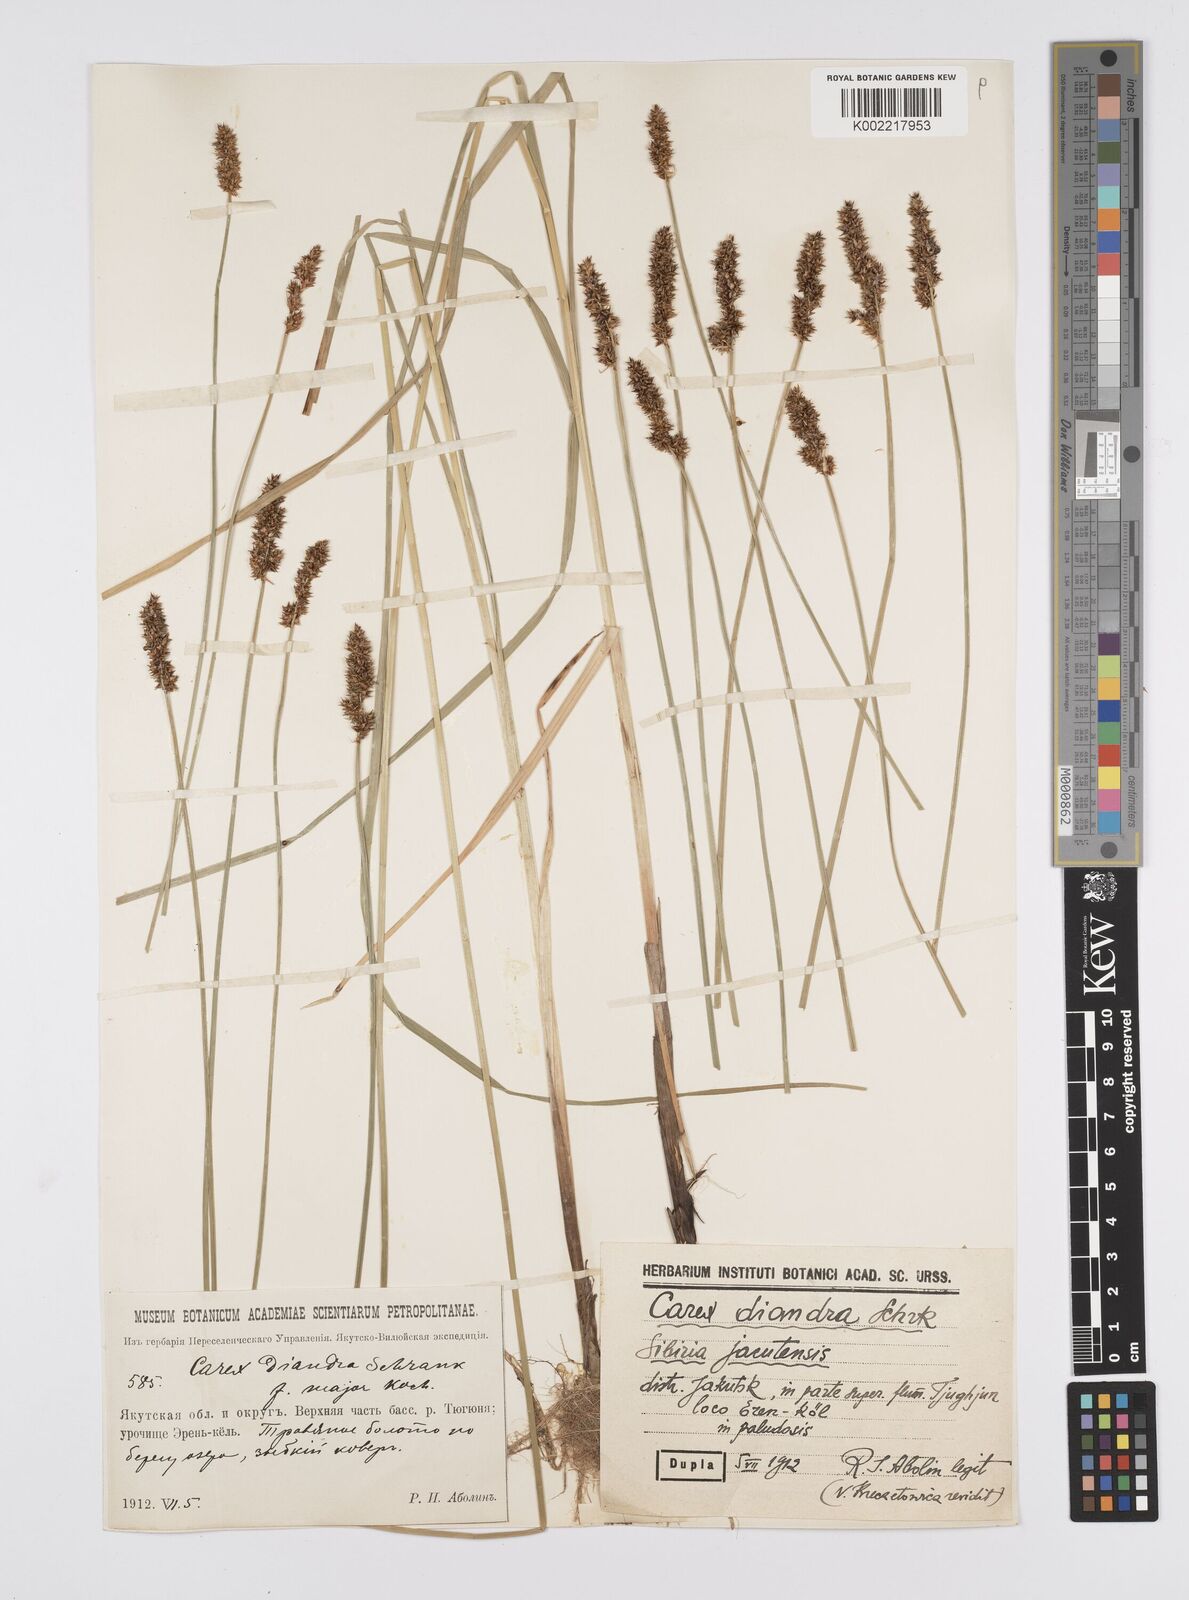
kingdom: Plantae
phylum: Tracheophyta
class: Liliopsida
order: Poales
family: Cyperaceae
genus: Carex
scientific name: Carex diandra
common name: Lesser tussock-sedge
